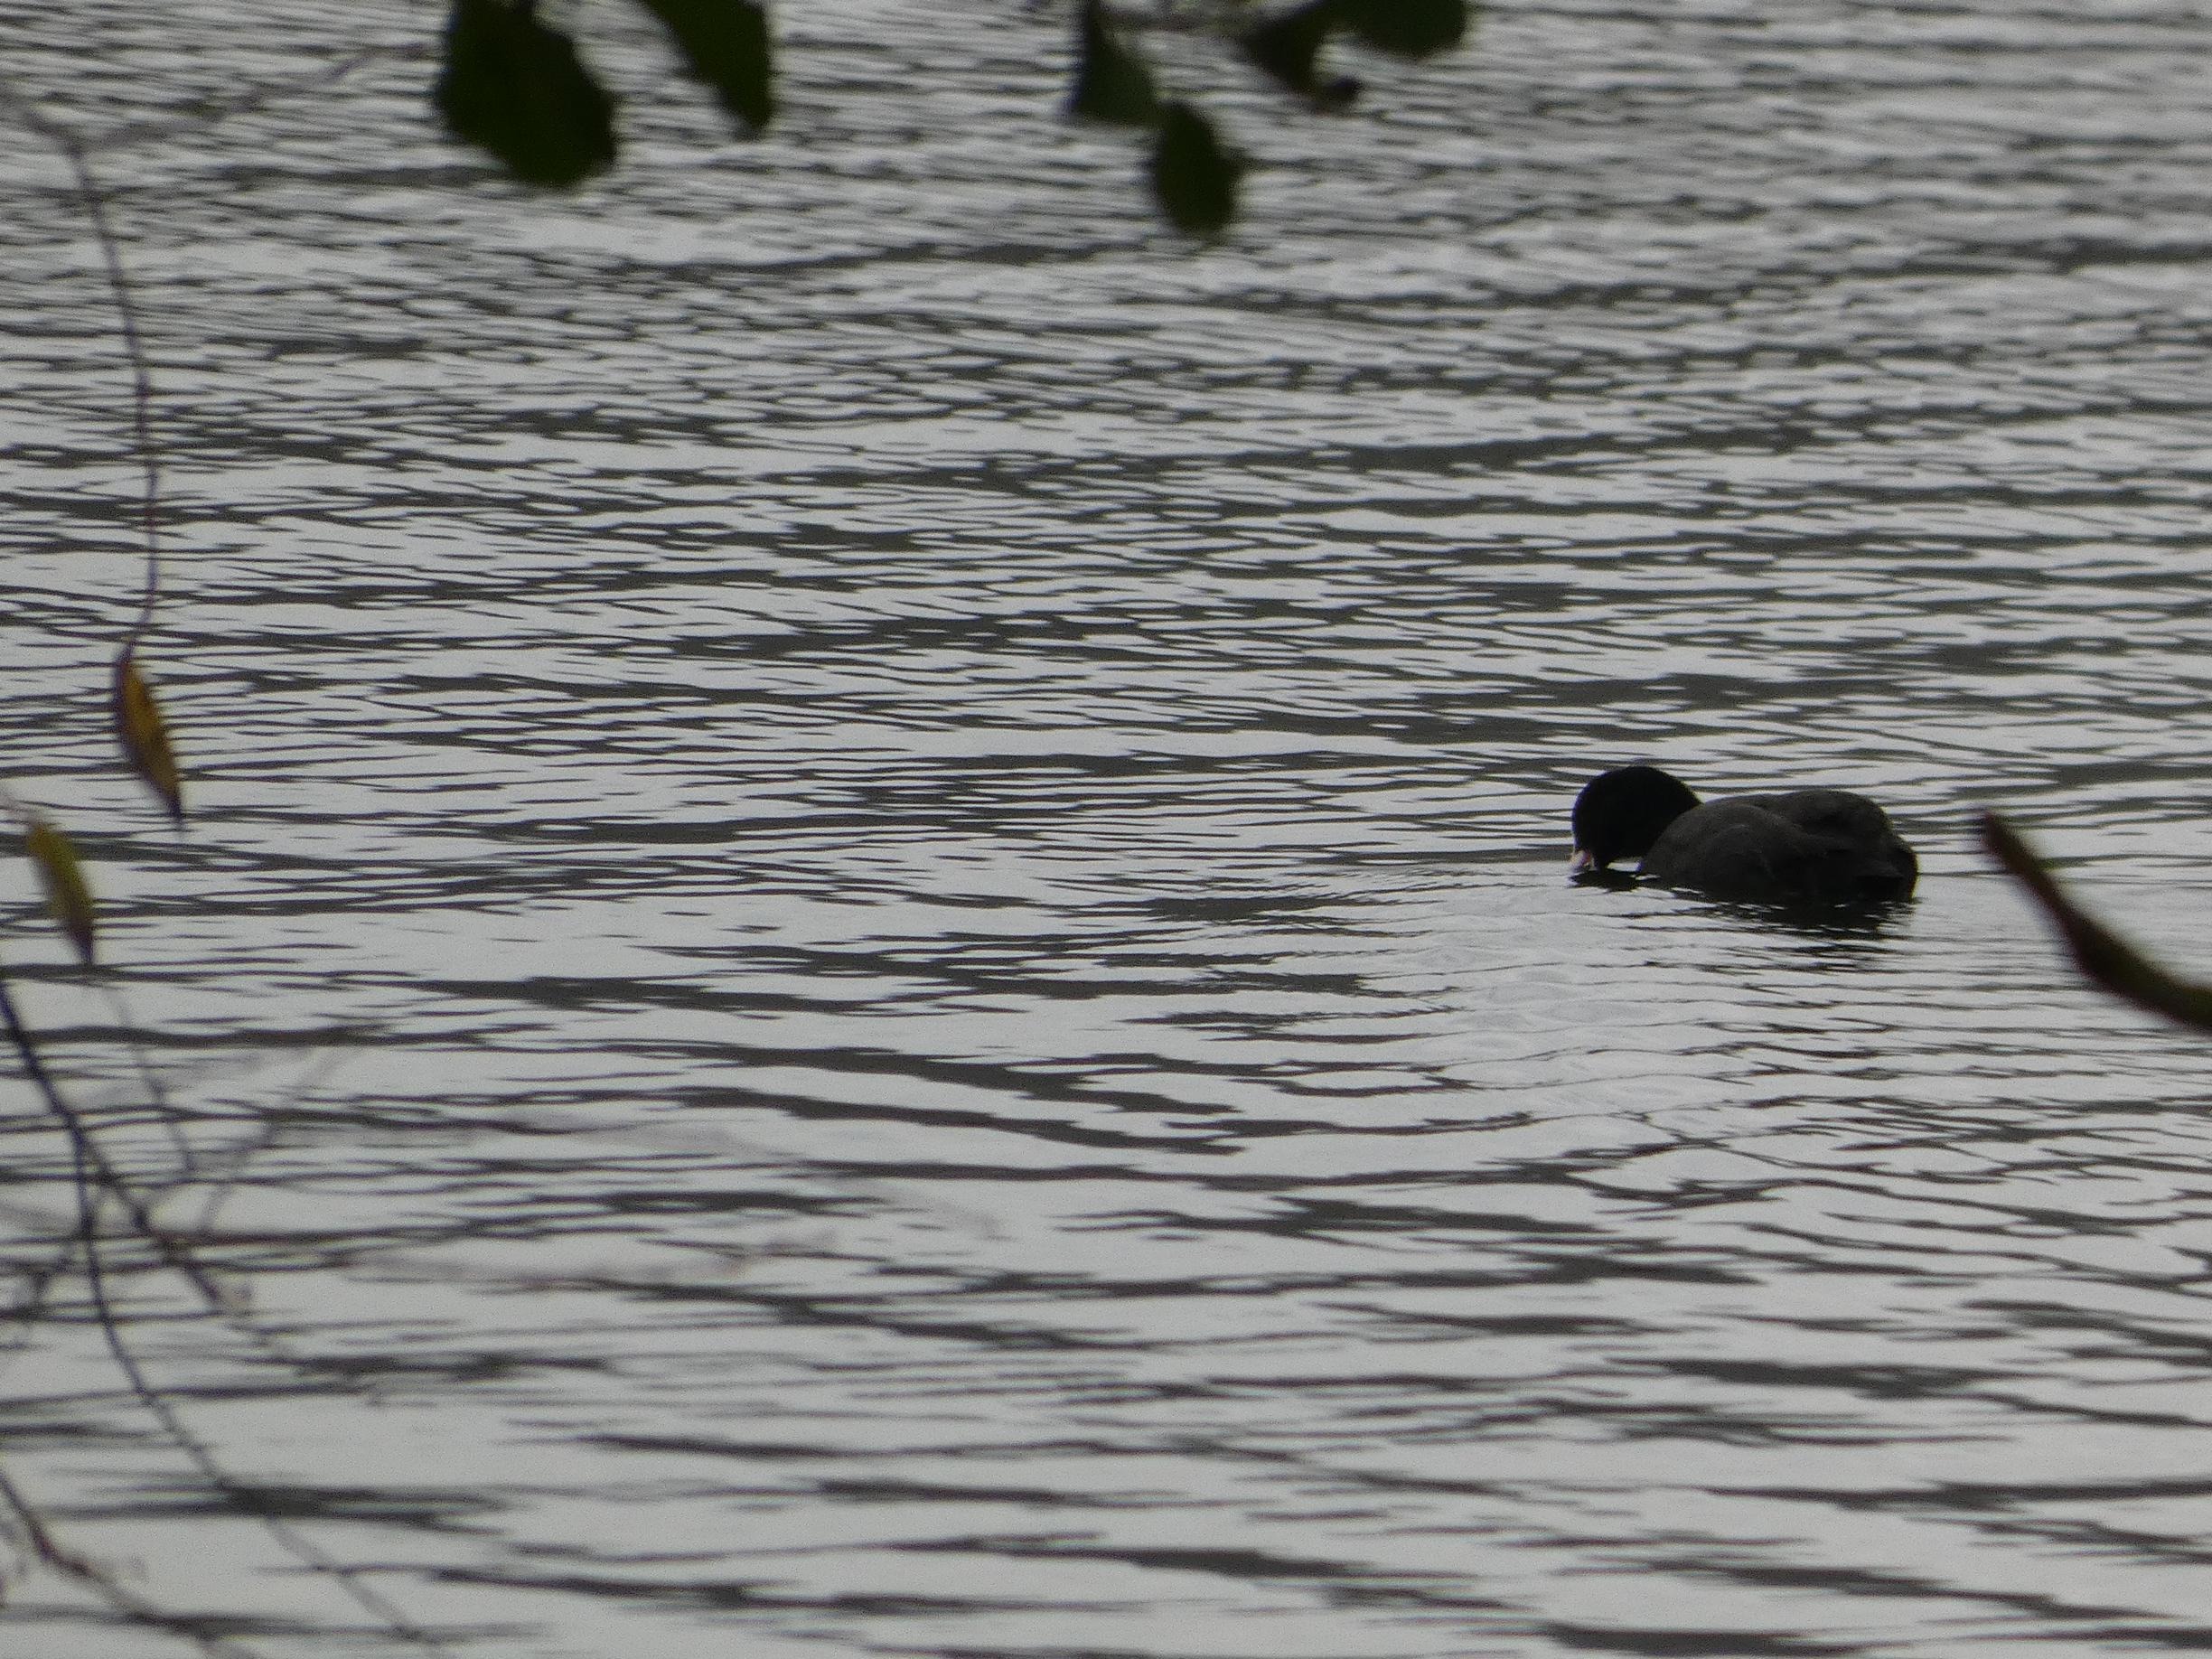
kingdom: Animalia
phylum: Chordata
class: Aves
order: Gruiformes
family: Rallidae
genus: Fulica
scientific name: Fulica atra
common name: Blishøne
